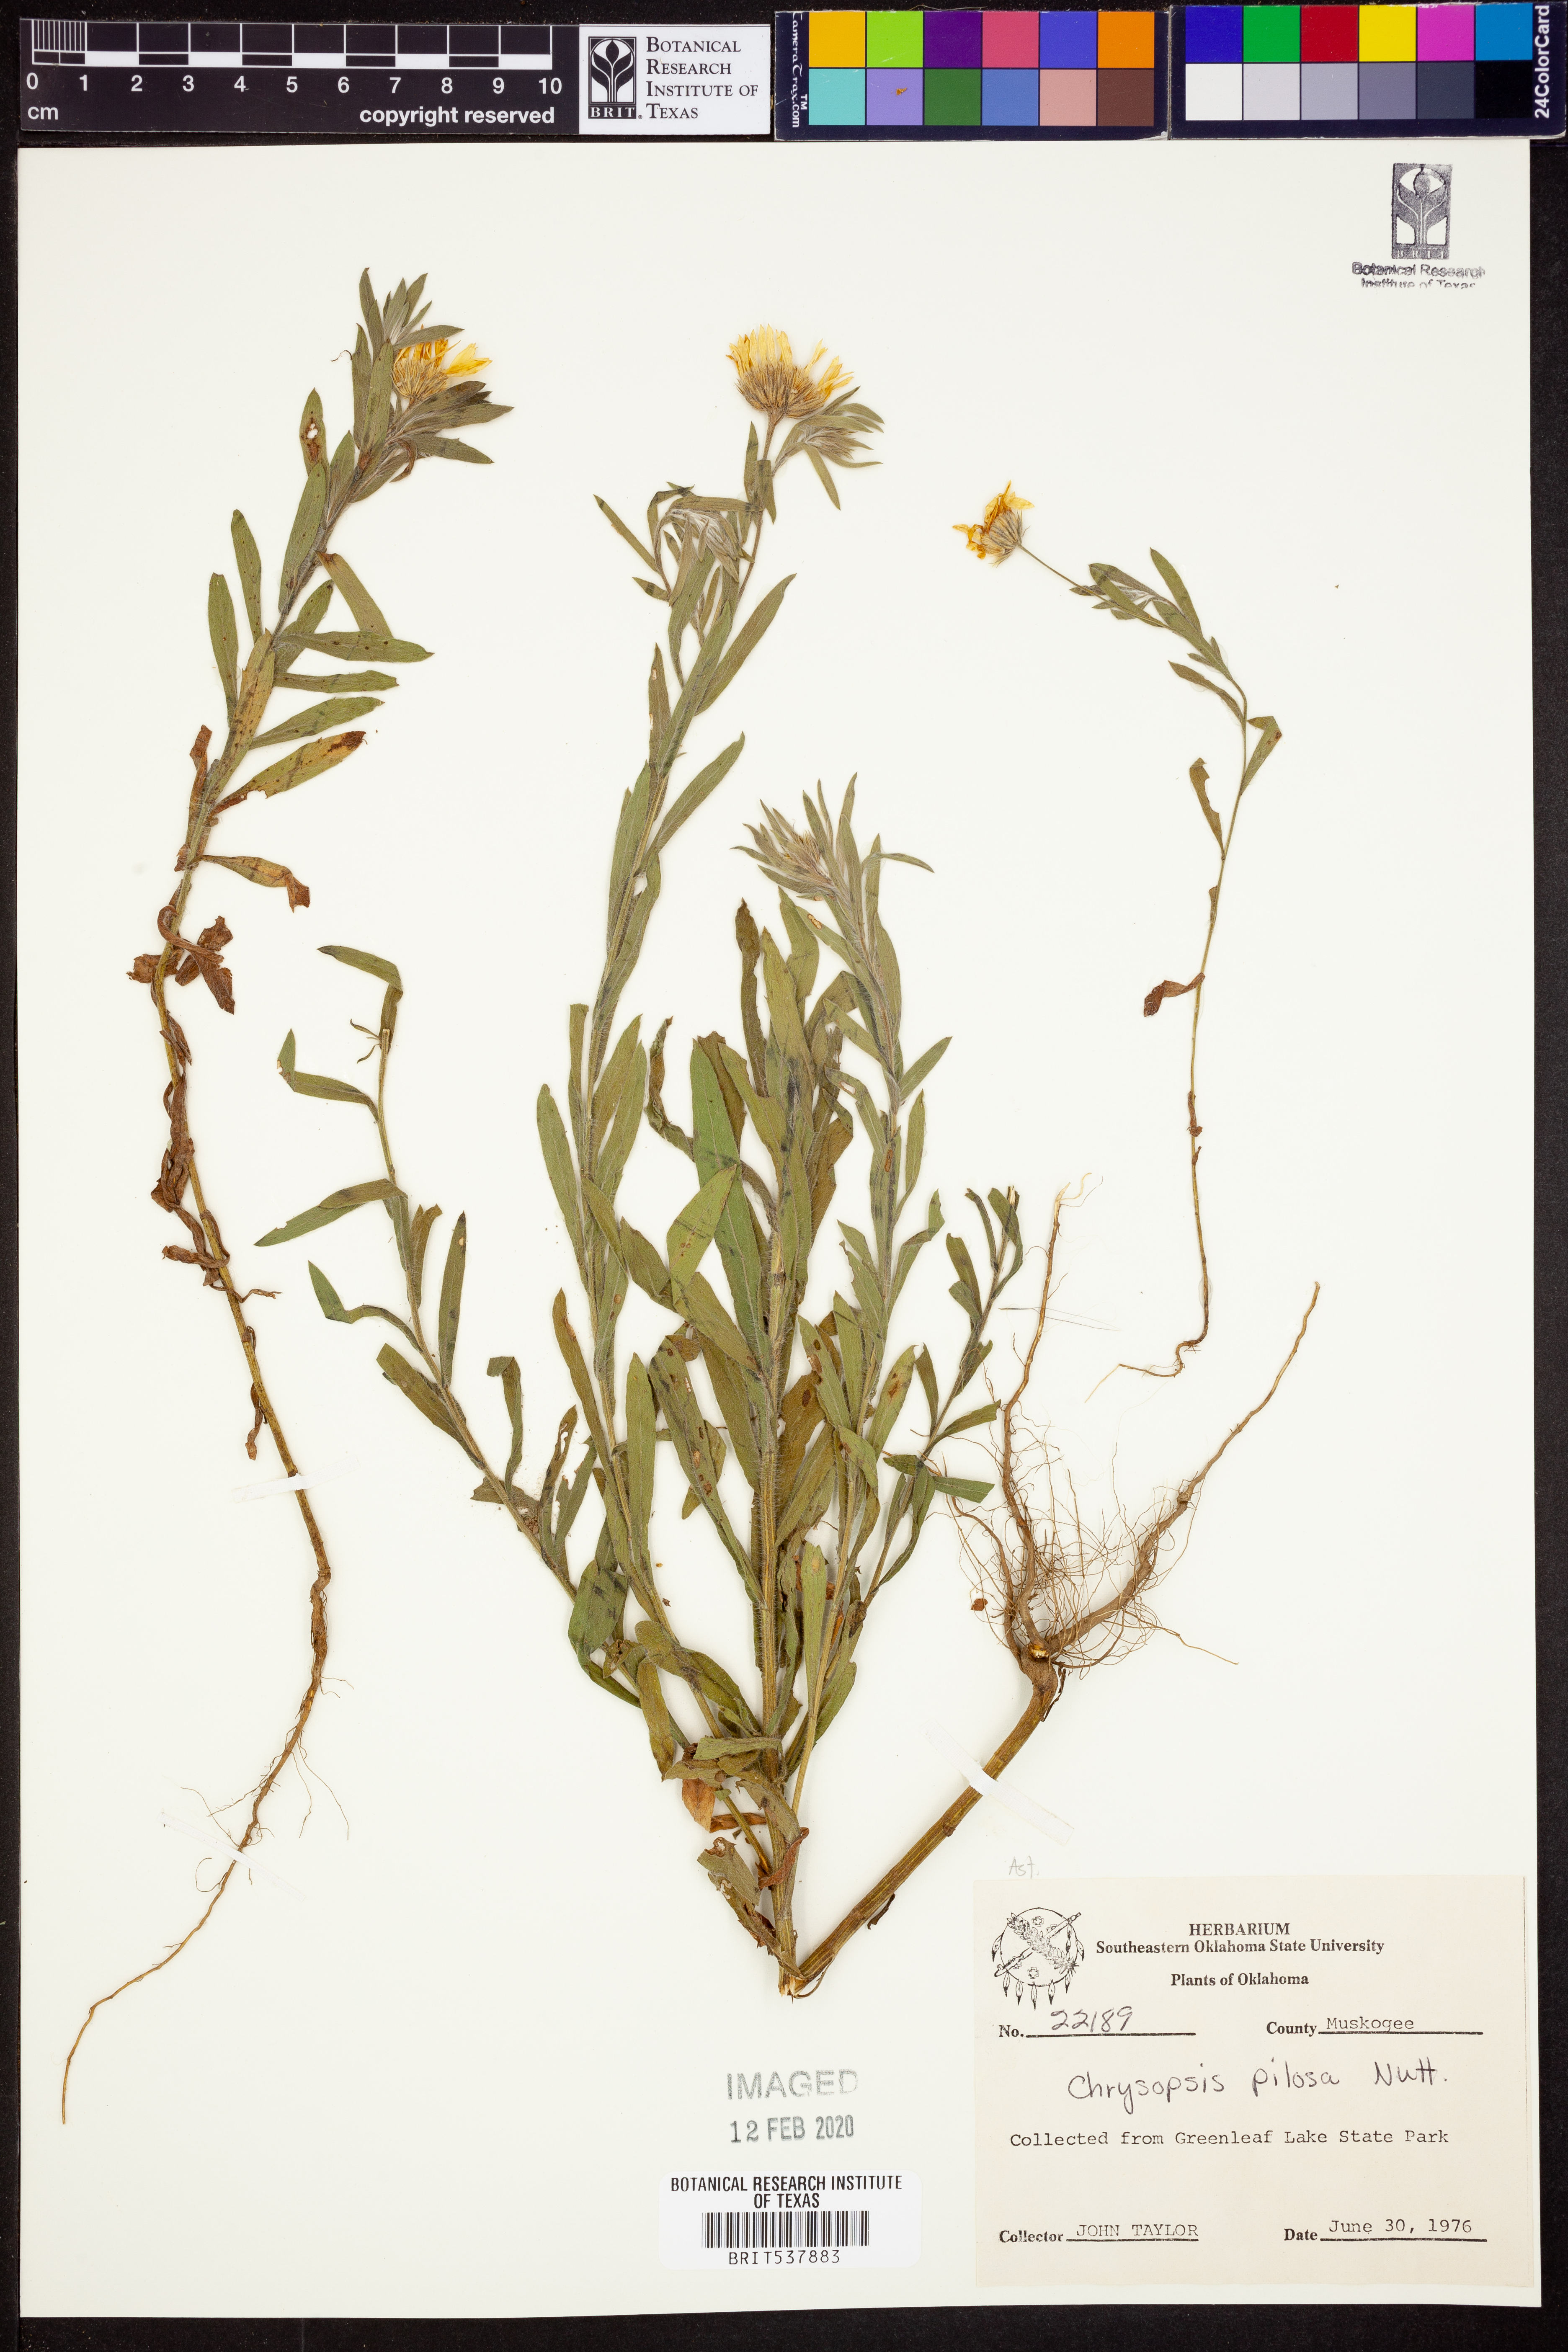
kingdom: Plantae
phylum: Tracheophyta
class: Magnoliopsida
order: Asterales
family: Asteraceae
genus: Bradburia
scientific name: Bradburia pilosa
